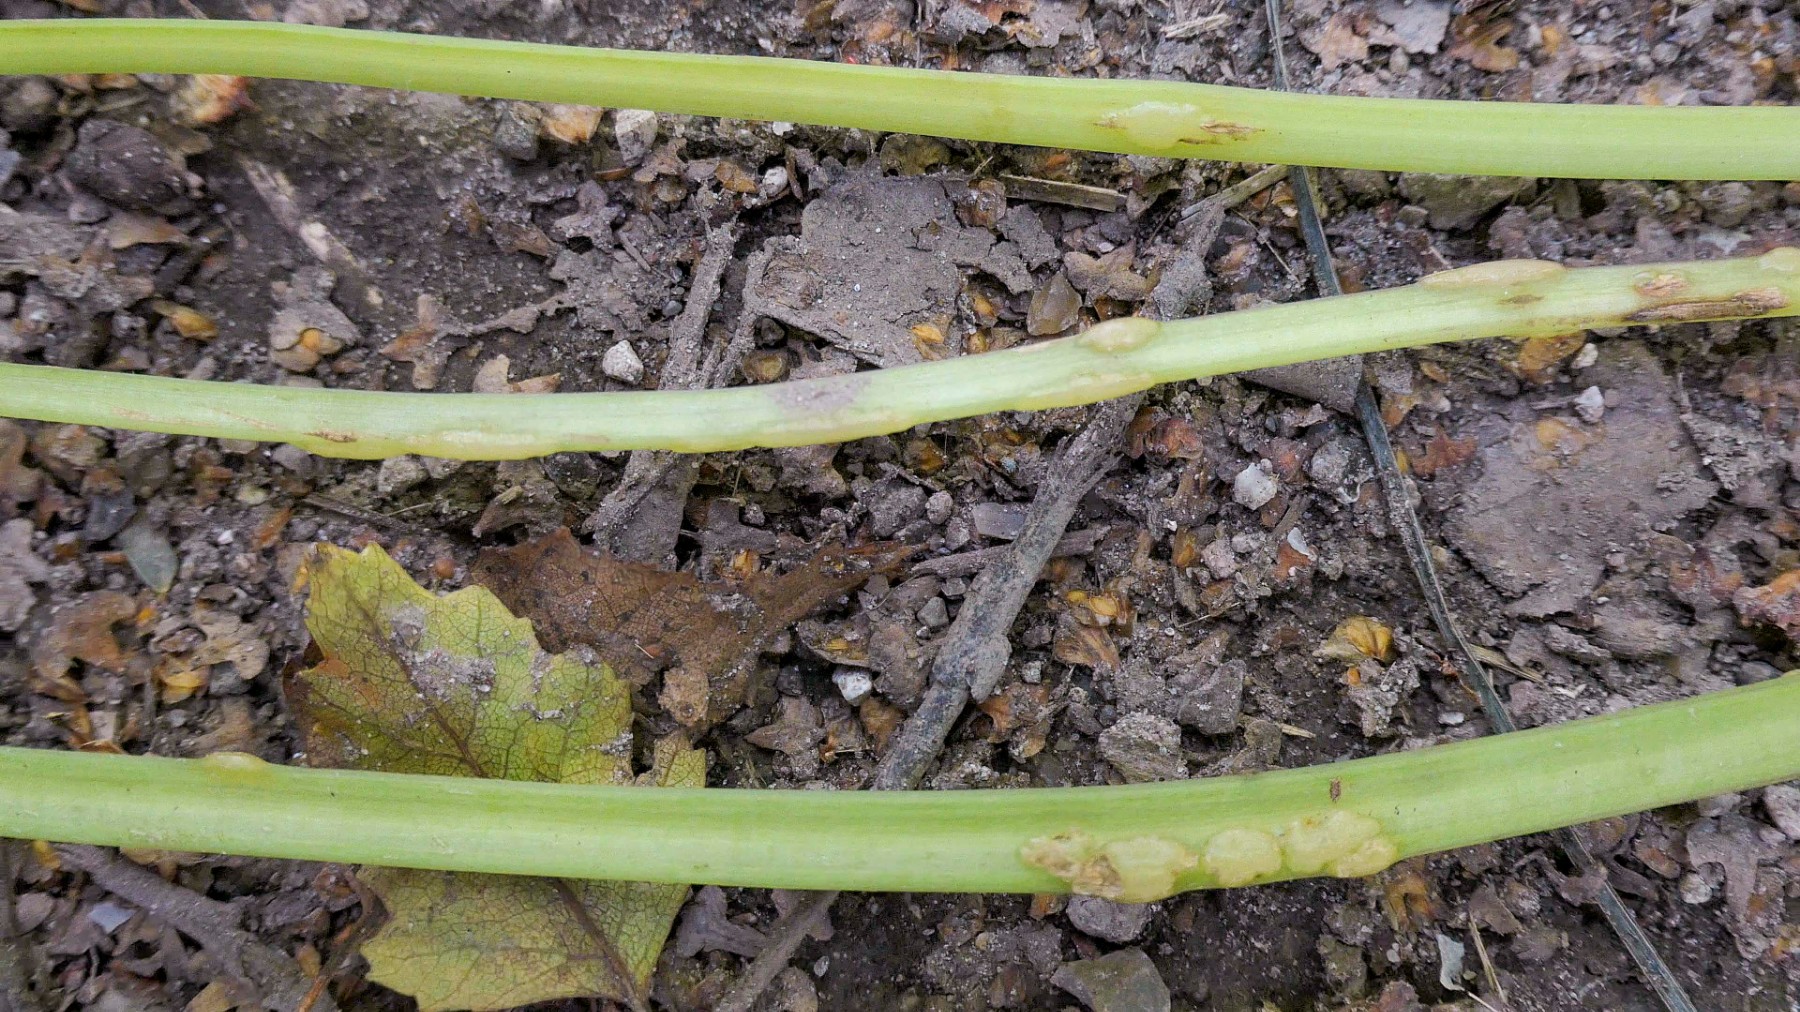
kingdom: Fungi
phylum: Ascomycota
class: Taphrinomycetes
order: Taphrinales
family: Taphrinaceae
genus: Protomyces
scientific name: Protomyces macrosporus
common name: skvalderkål-vablesæk
